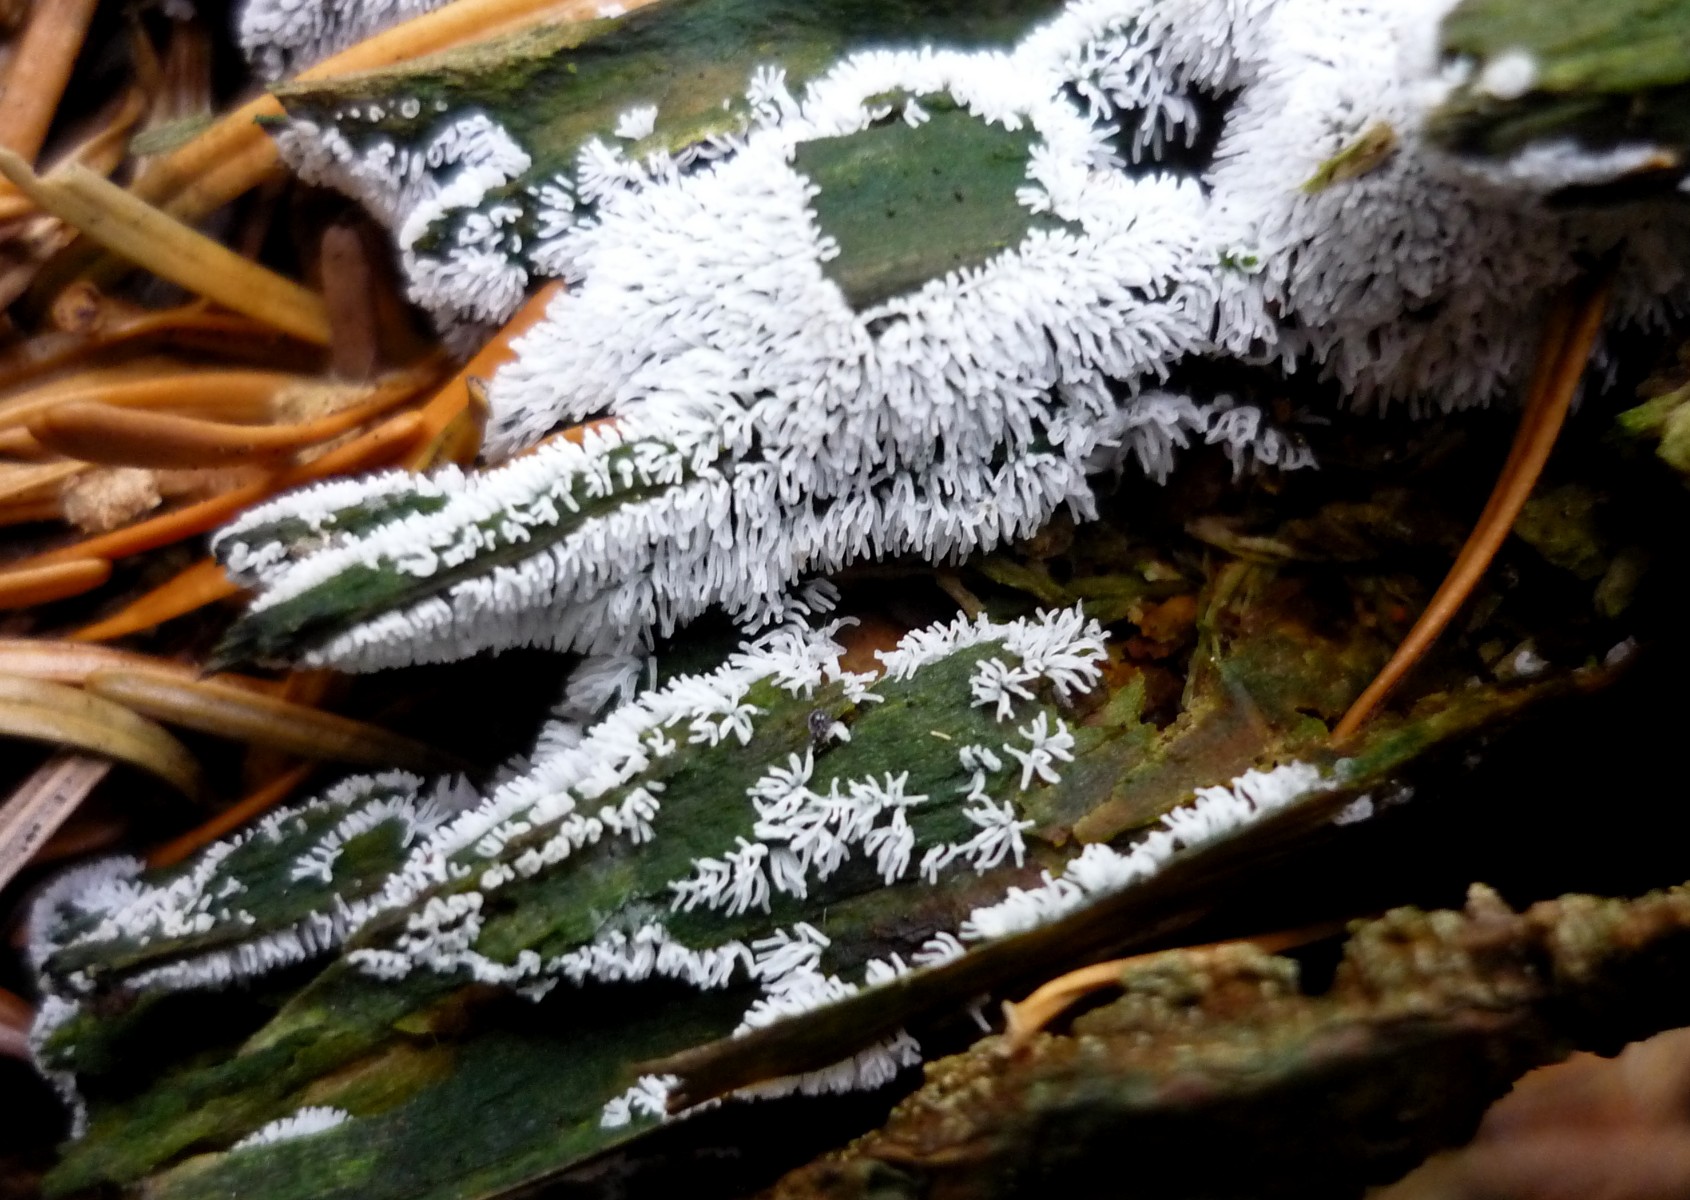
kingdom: Protozoa
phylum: Mycetozoa
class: Protosteliomycetes
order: Ceratiomyxales
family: Ceratiomyxaceae
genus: Ceratiomyxa
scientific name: Ceratiomyxa fruticulosa
